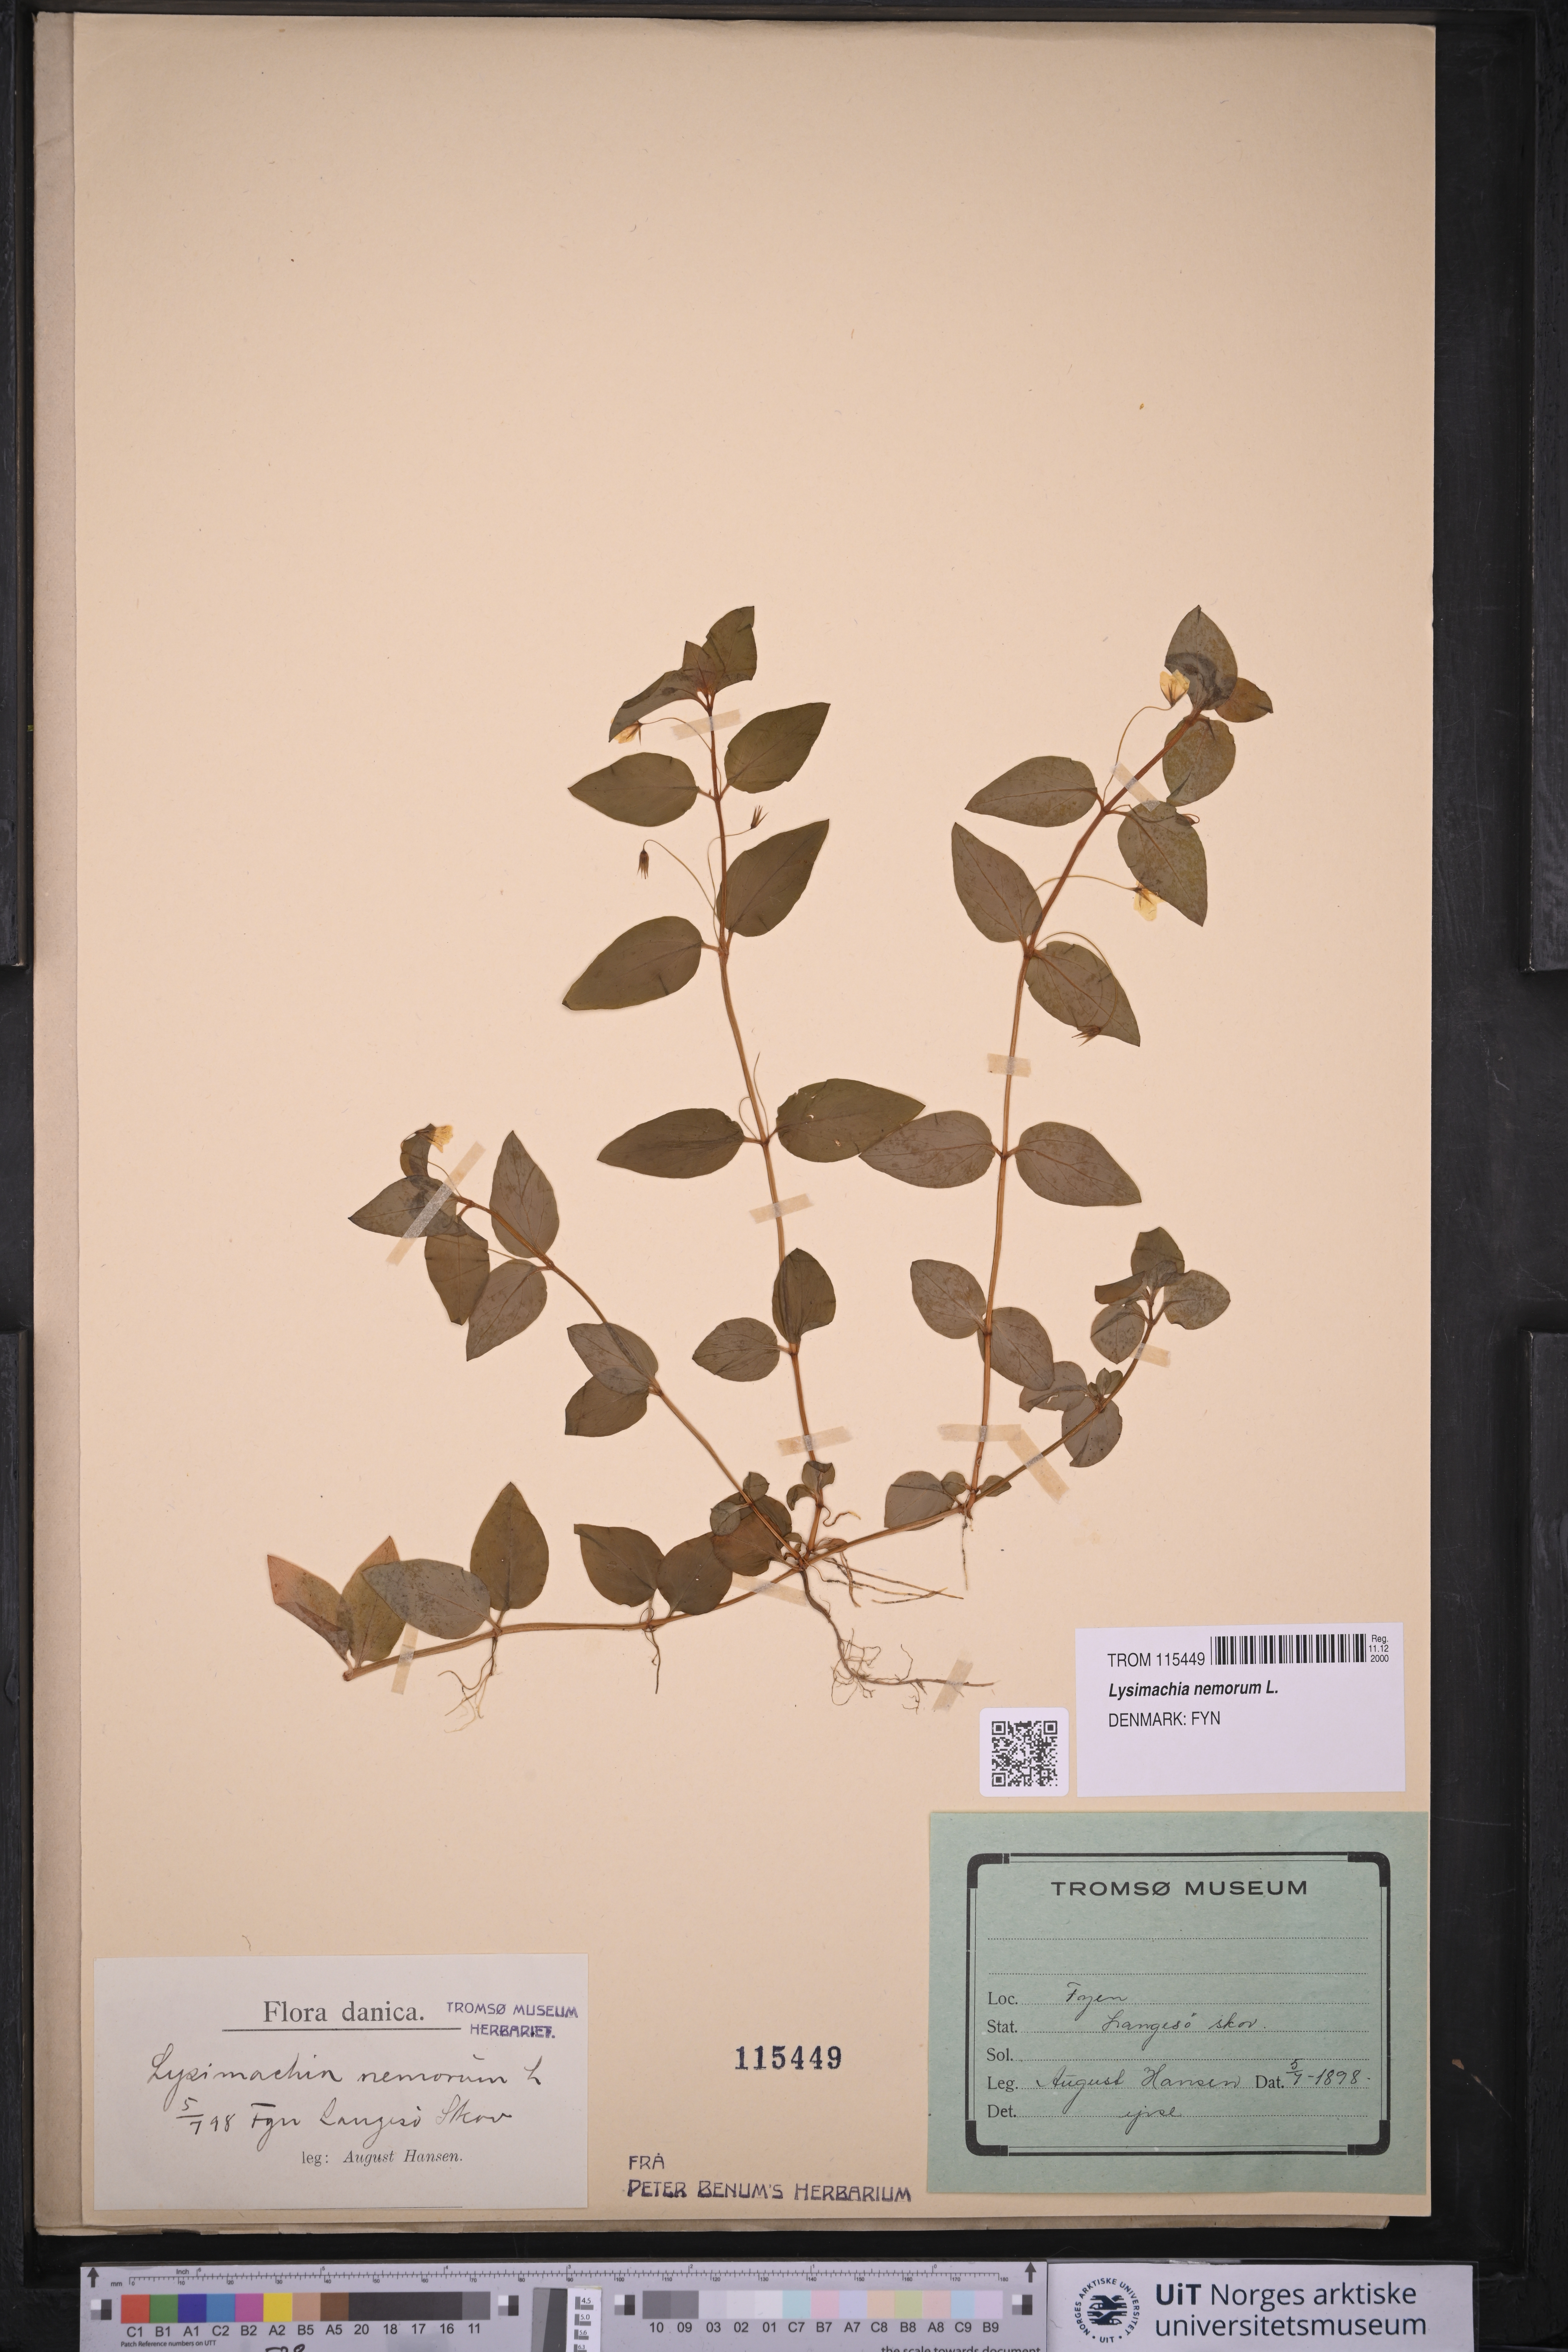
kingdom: Plantae
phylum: Tracheophyta
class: Magnoliopsida
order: Ericales
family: Primulaceae
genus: Lysimachia
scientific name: Lysimachia nemorum
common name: Yellow pimpernel
